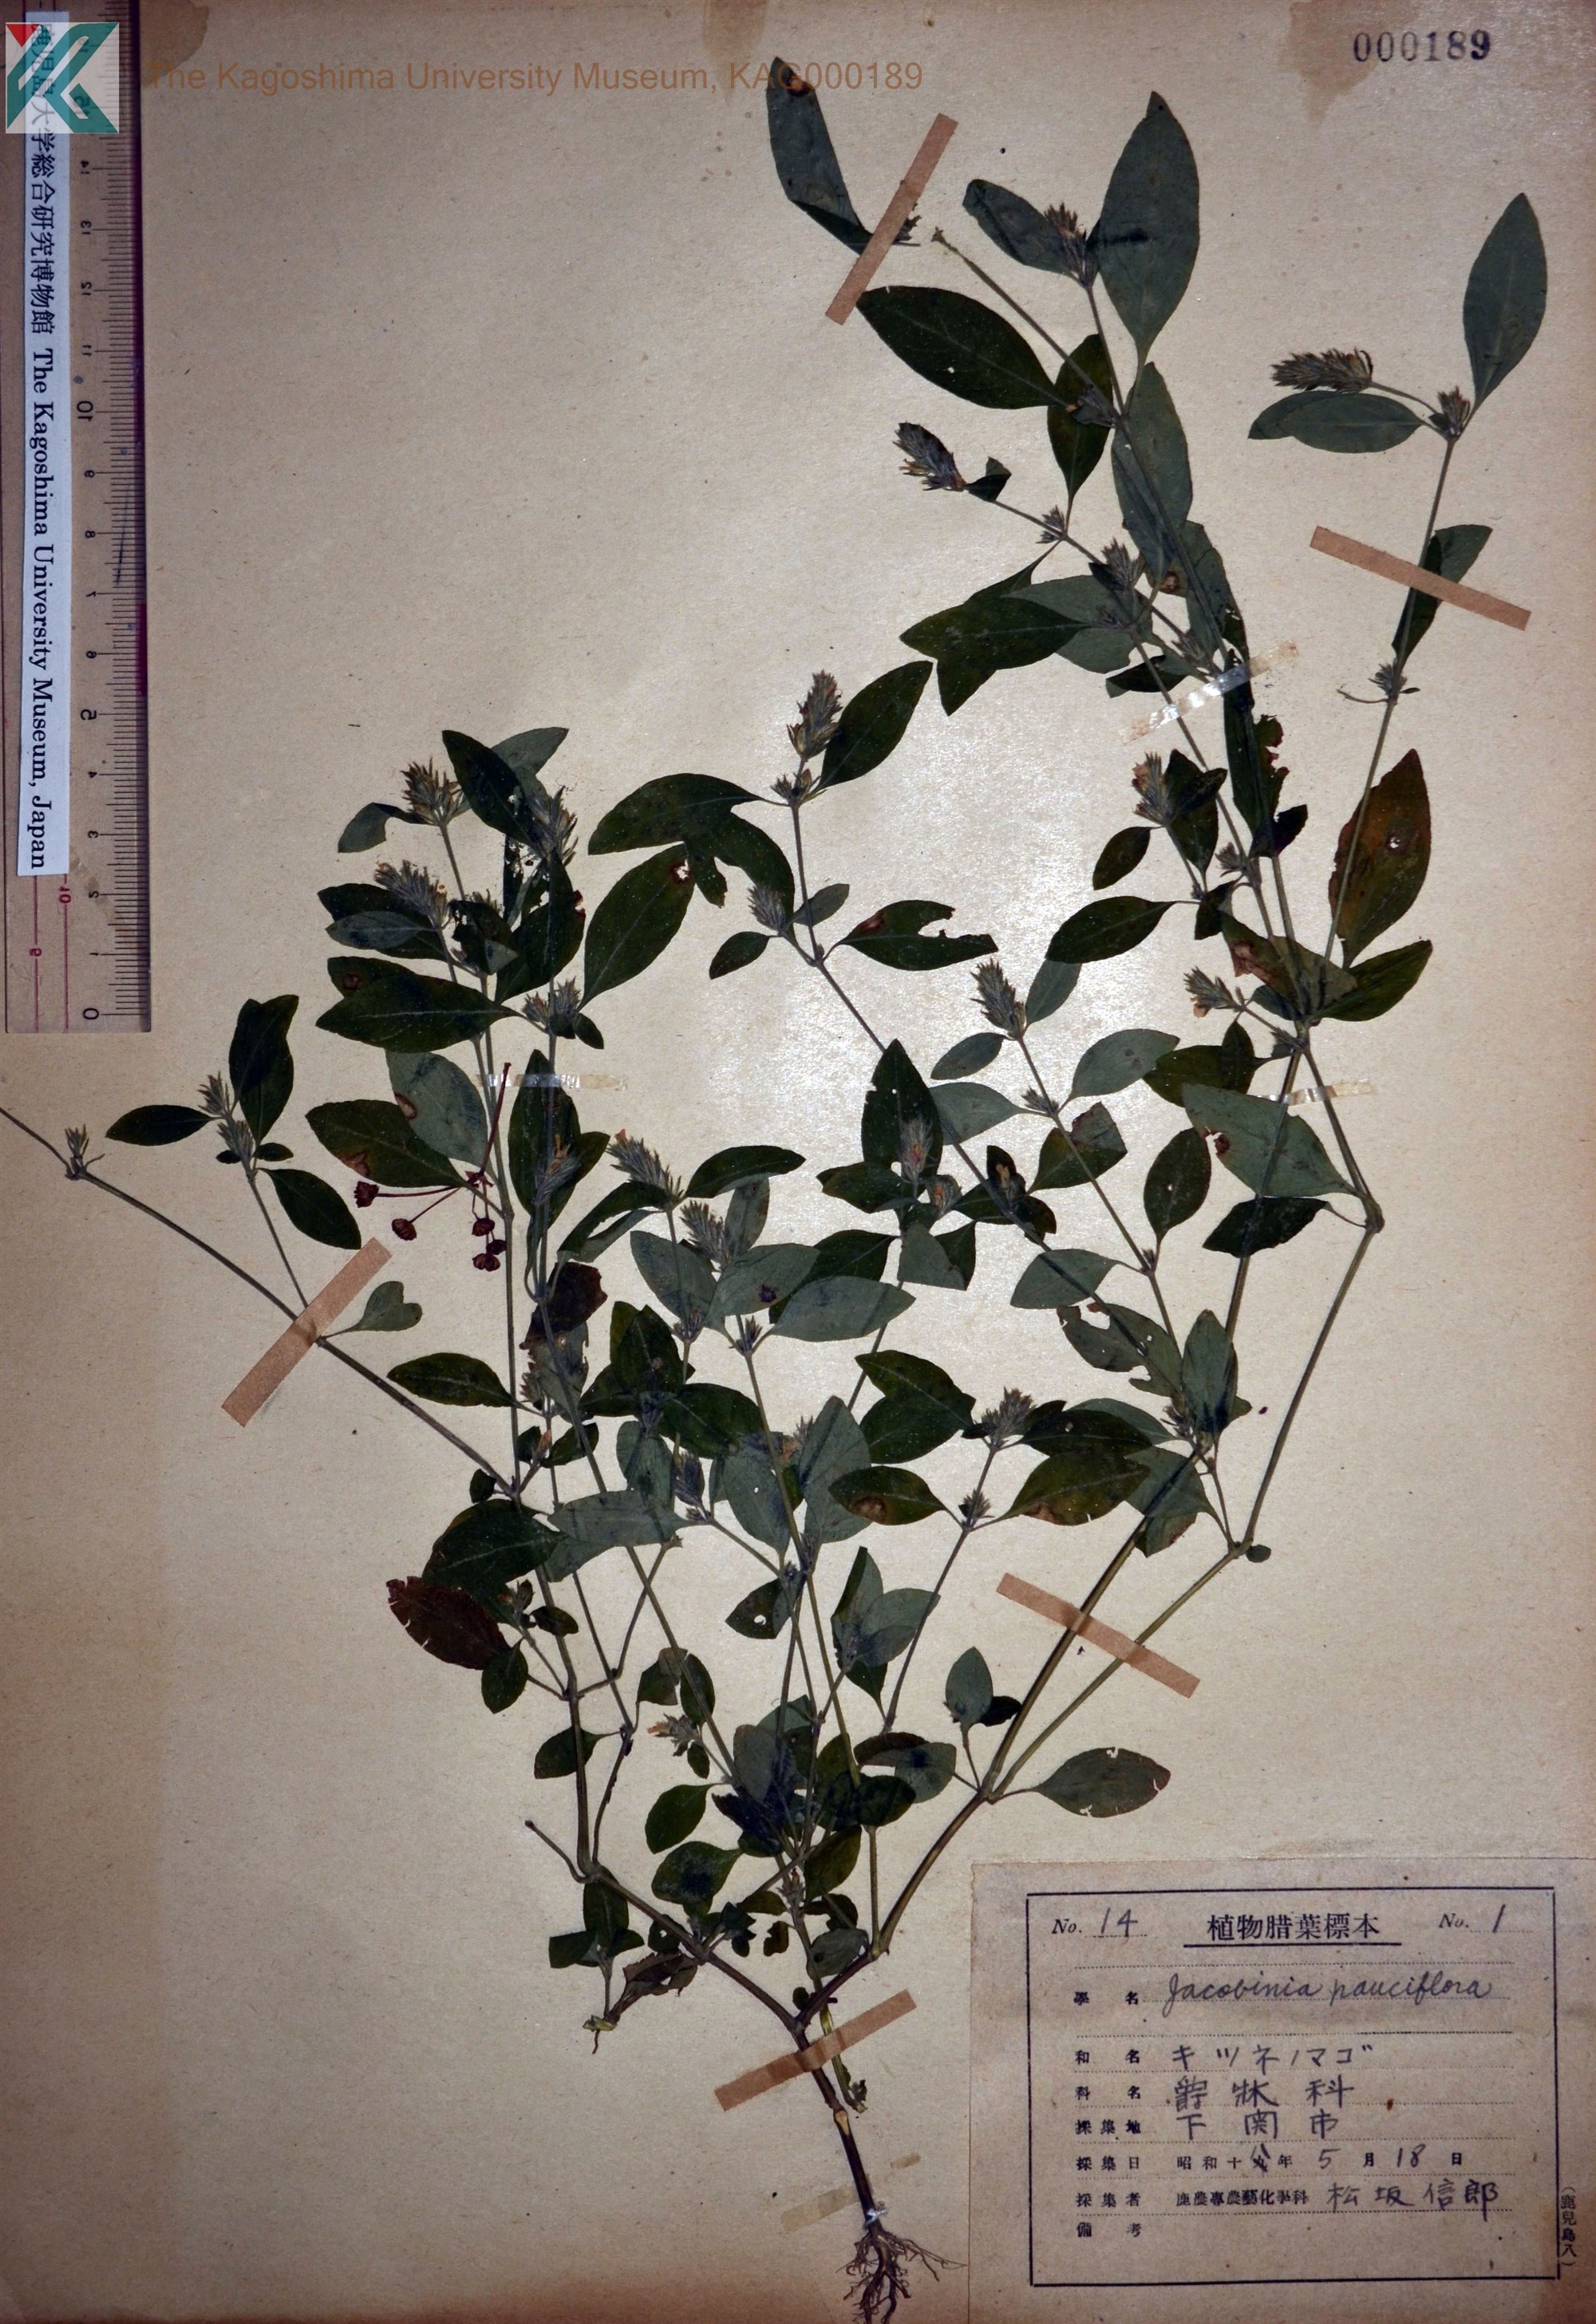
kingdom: Plantae
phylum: Tracheophyta
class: Magnoliopsida
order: Lamiales
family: Acanthaceae
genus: Rostellularia
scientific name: Rostellularia procumbens
